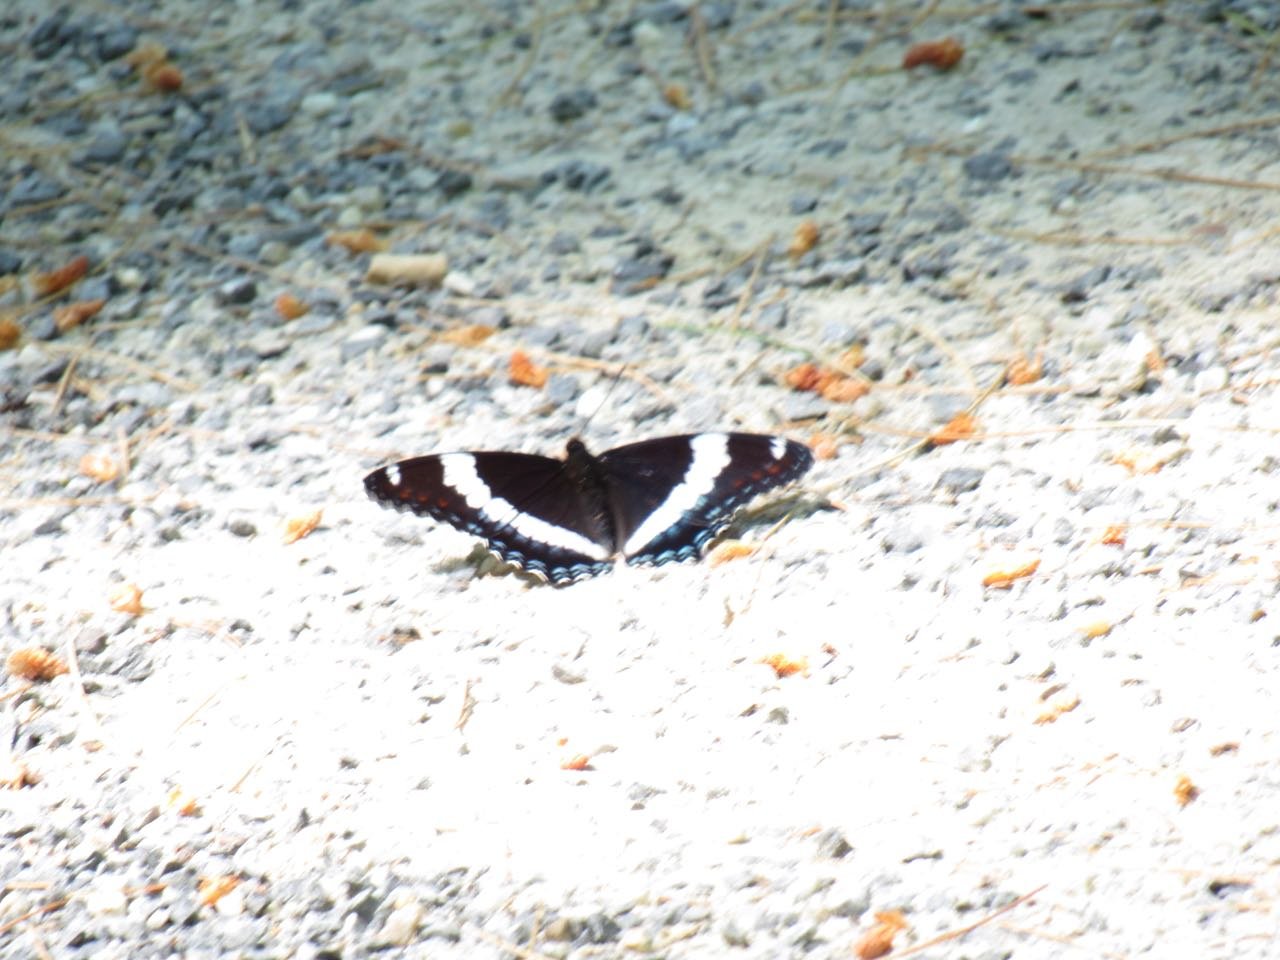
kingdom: Animalia
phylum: Arthropoda
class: Insecta
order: Lepidoptera
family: Nymphalidae
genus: Limenitis
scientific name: Limenitis arthemis
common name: Red-spotted Admiral
